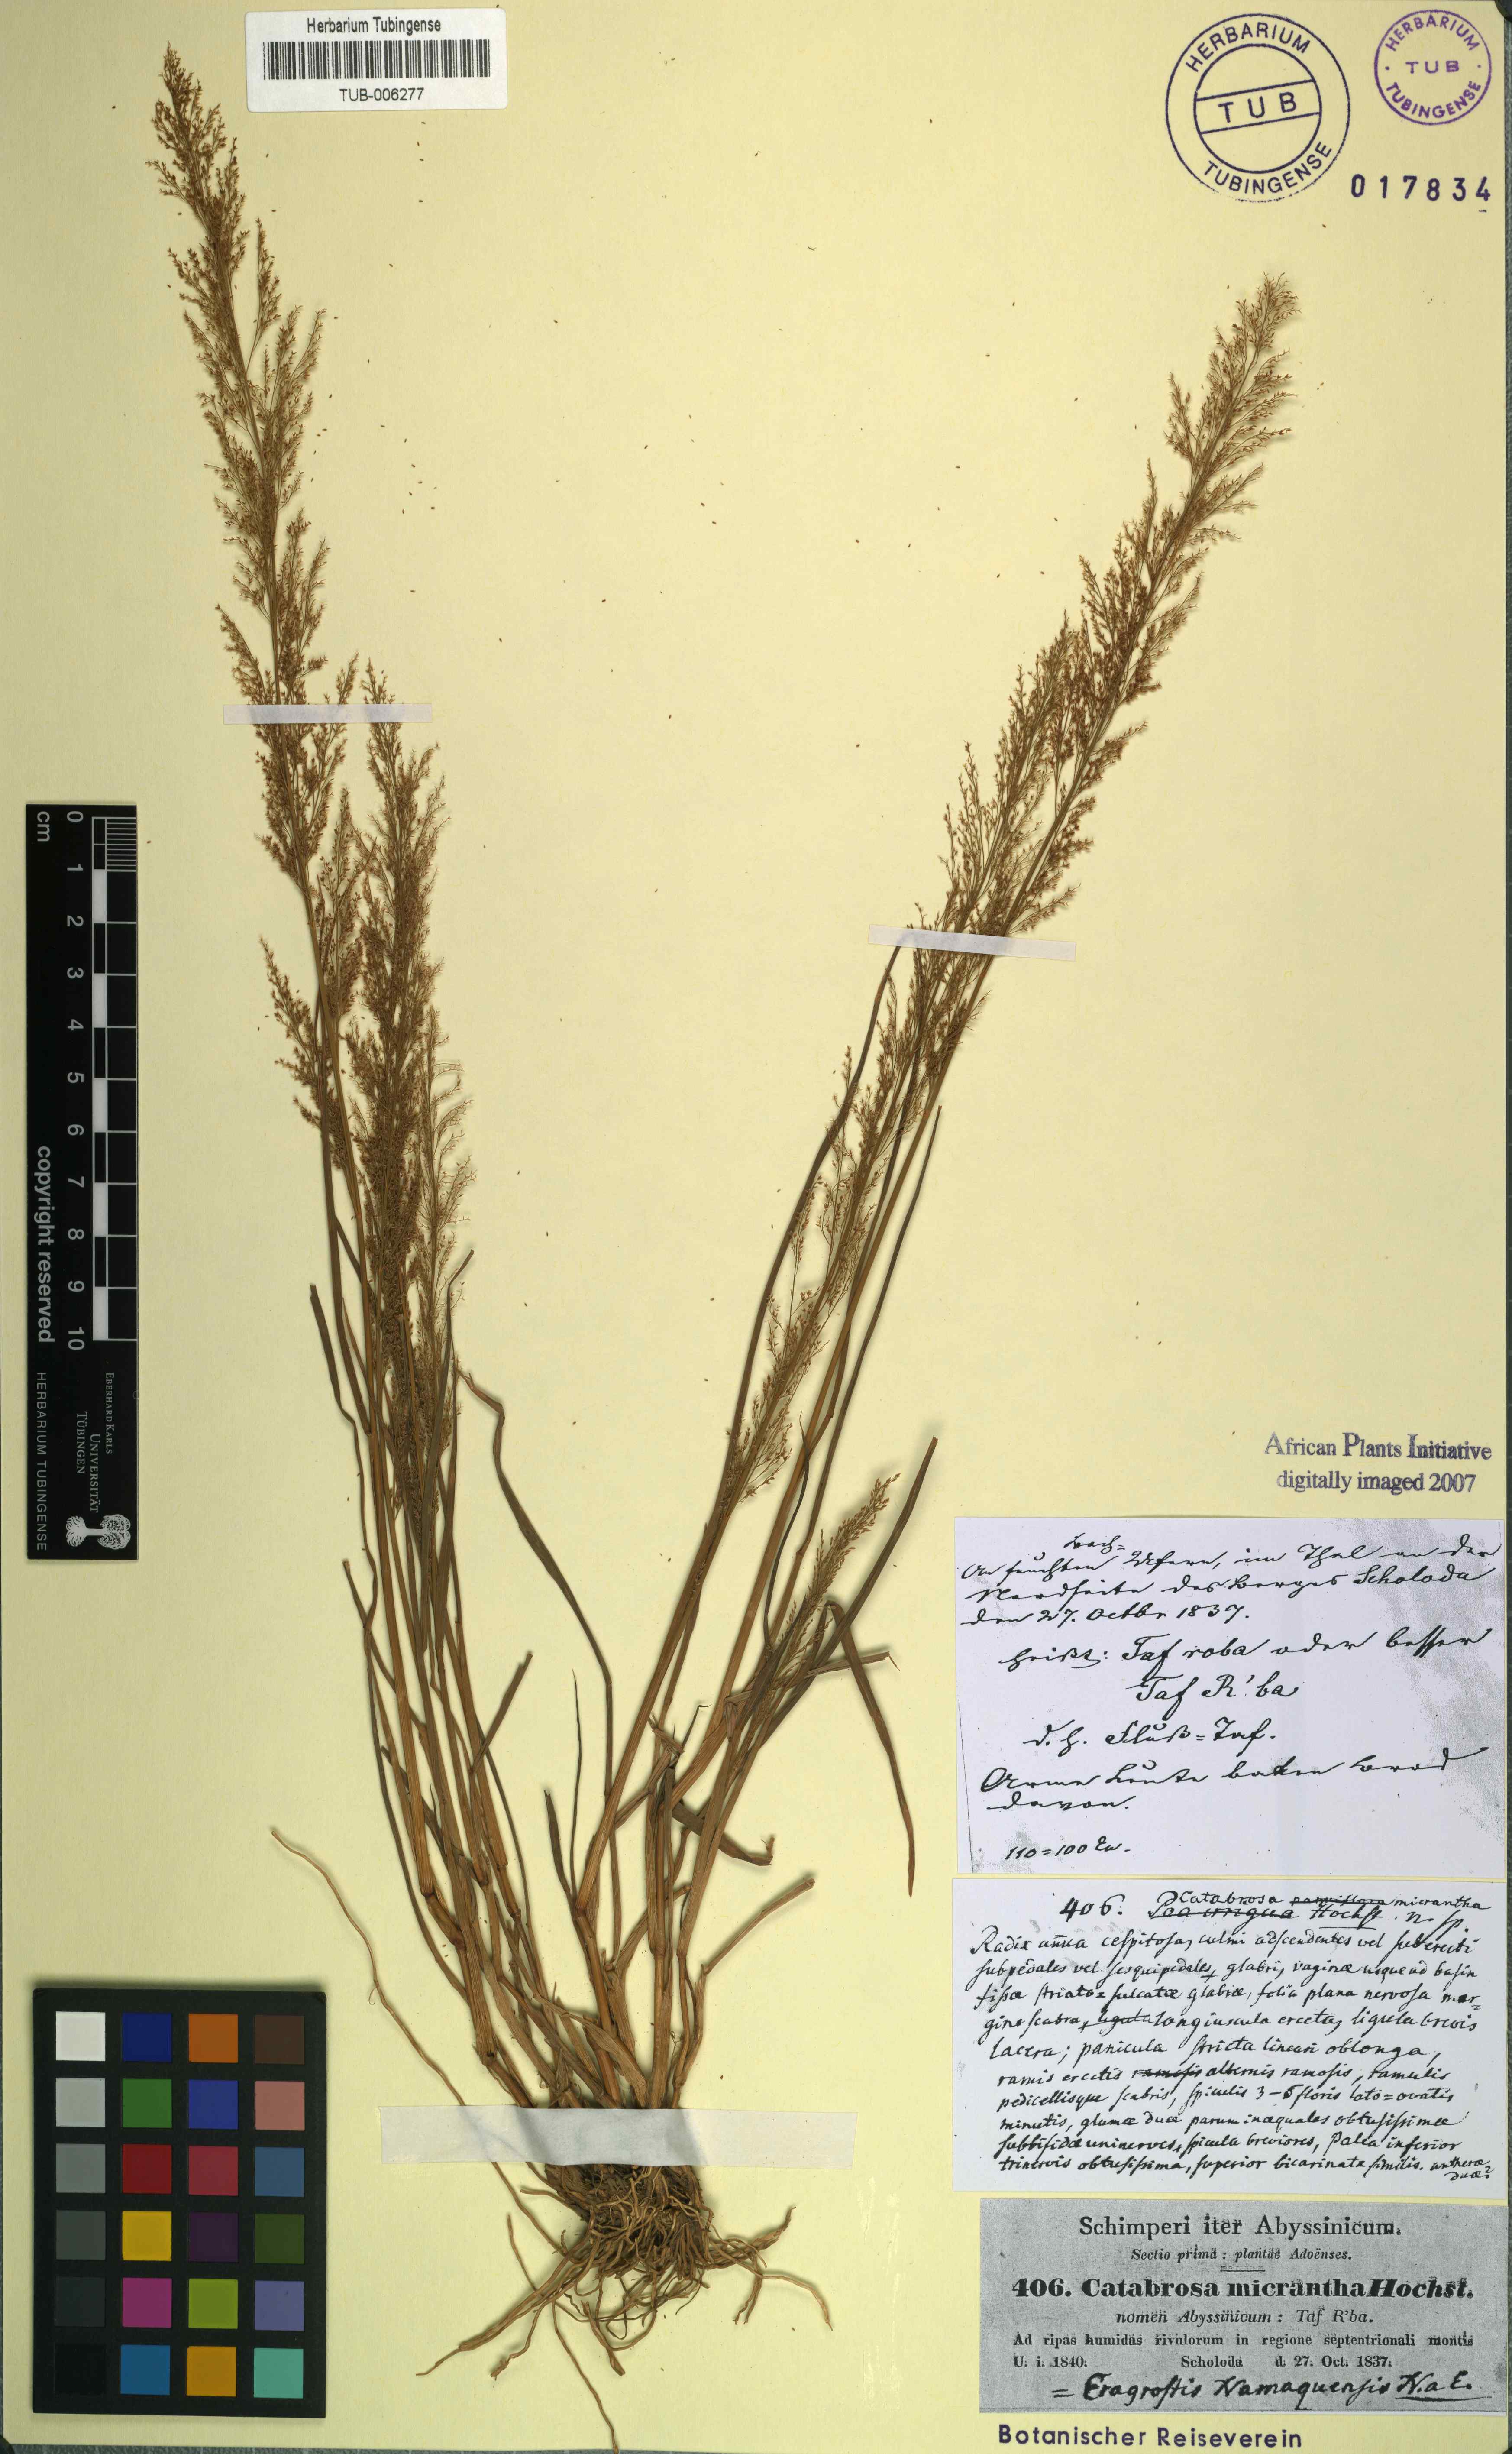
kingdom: Plantae
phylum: Tracheophyta
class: Liliopsida
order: Poales
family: Poaceae
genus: Eragrostis
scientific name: Eragrostis interrupta
